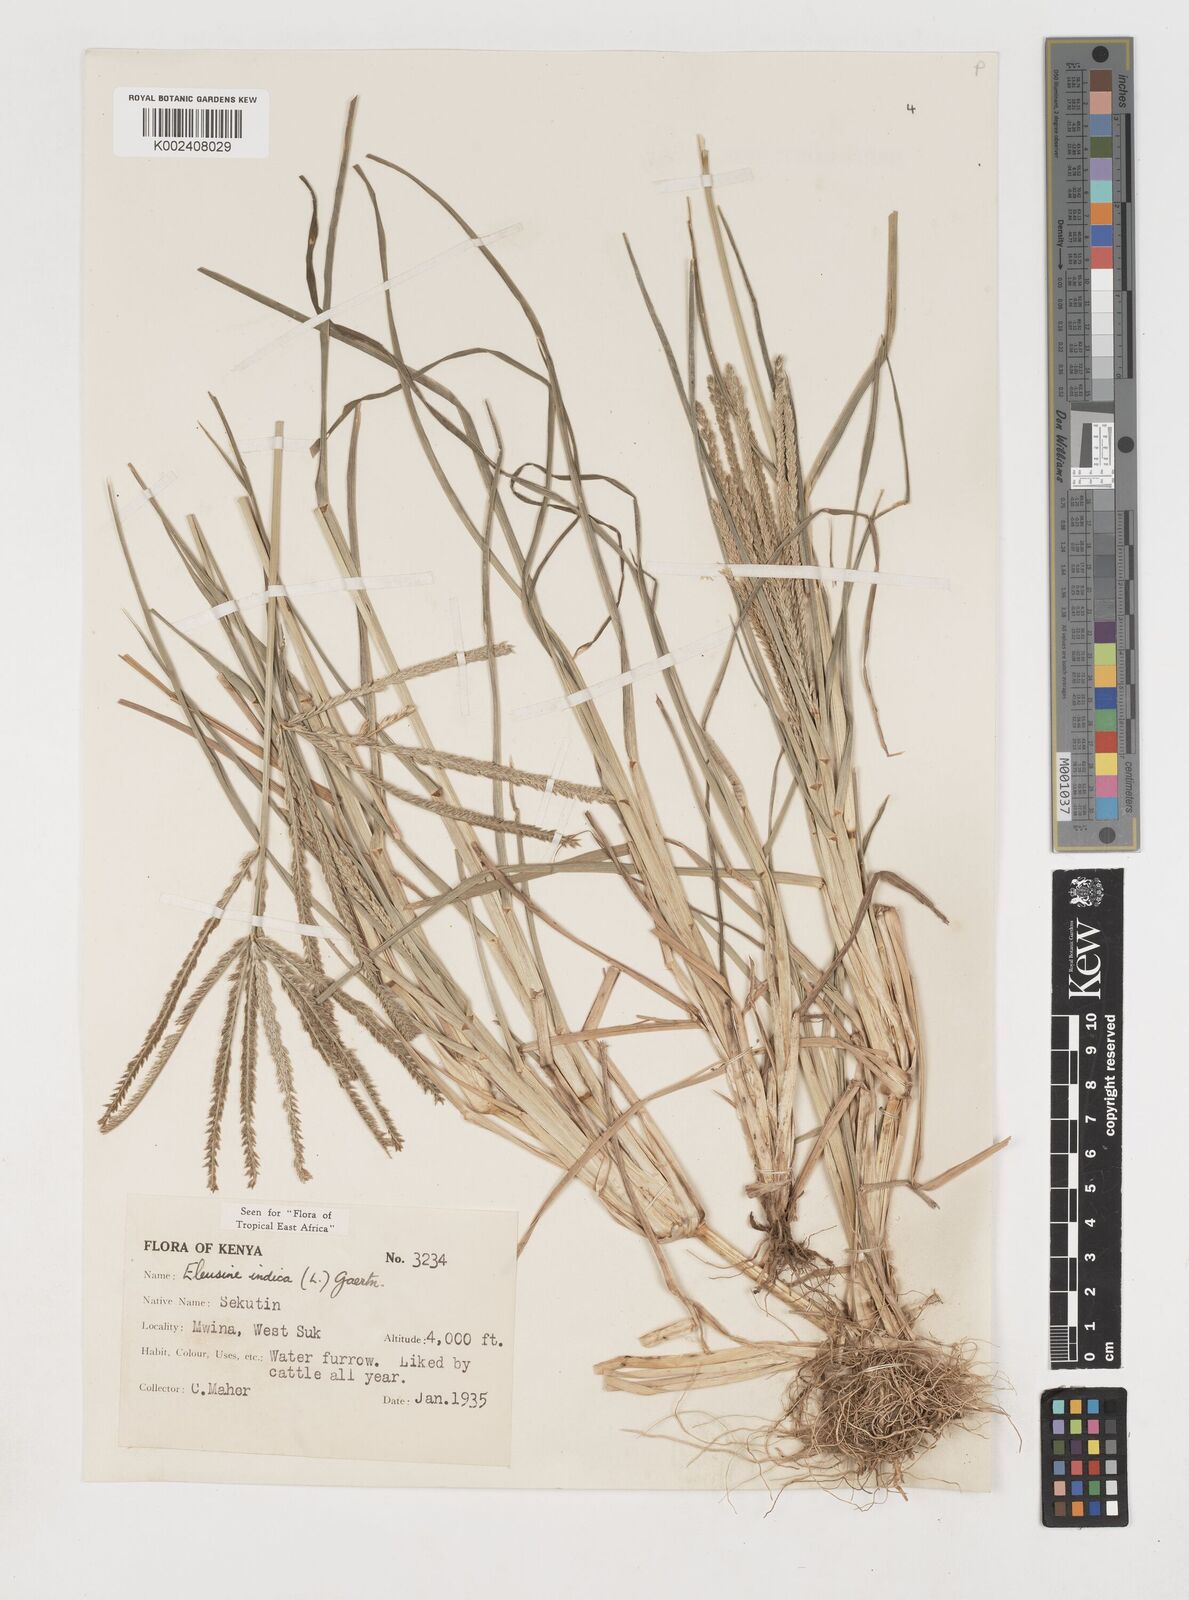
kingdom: Plantae
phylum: Tracheophyta
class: Liliopsida
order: Poales
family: Poaceae
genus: Eleusine
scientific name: Eleusine indica
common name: Yard-grass
